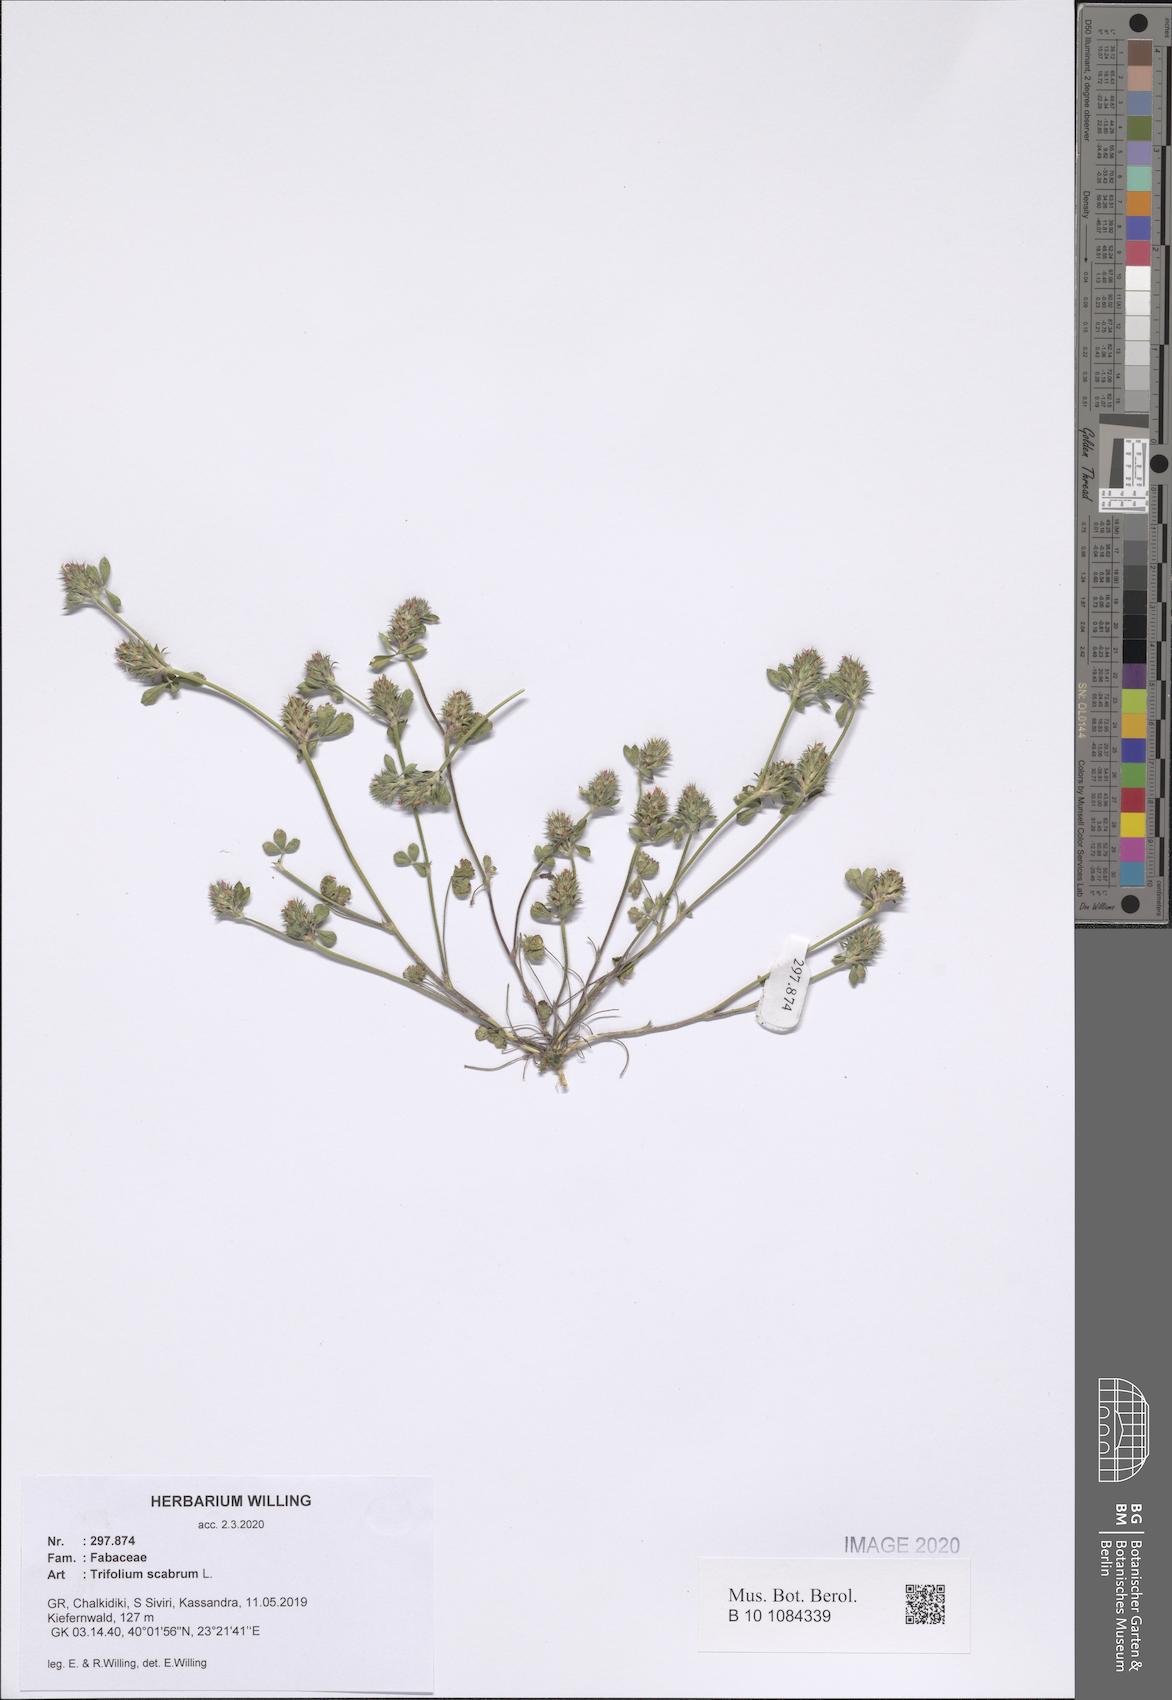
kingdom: Plantae
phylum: Tracheophyta
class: Magnoliopsida
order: Fabales
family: Fabaceae
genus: Trifolium
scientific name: Trifolium scabrum
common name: Rough clover
